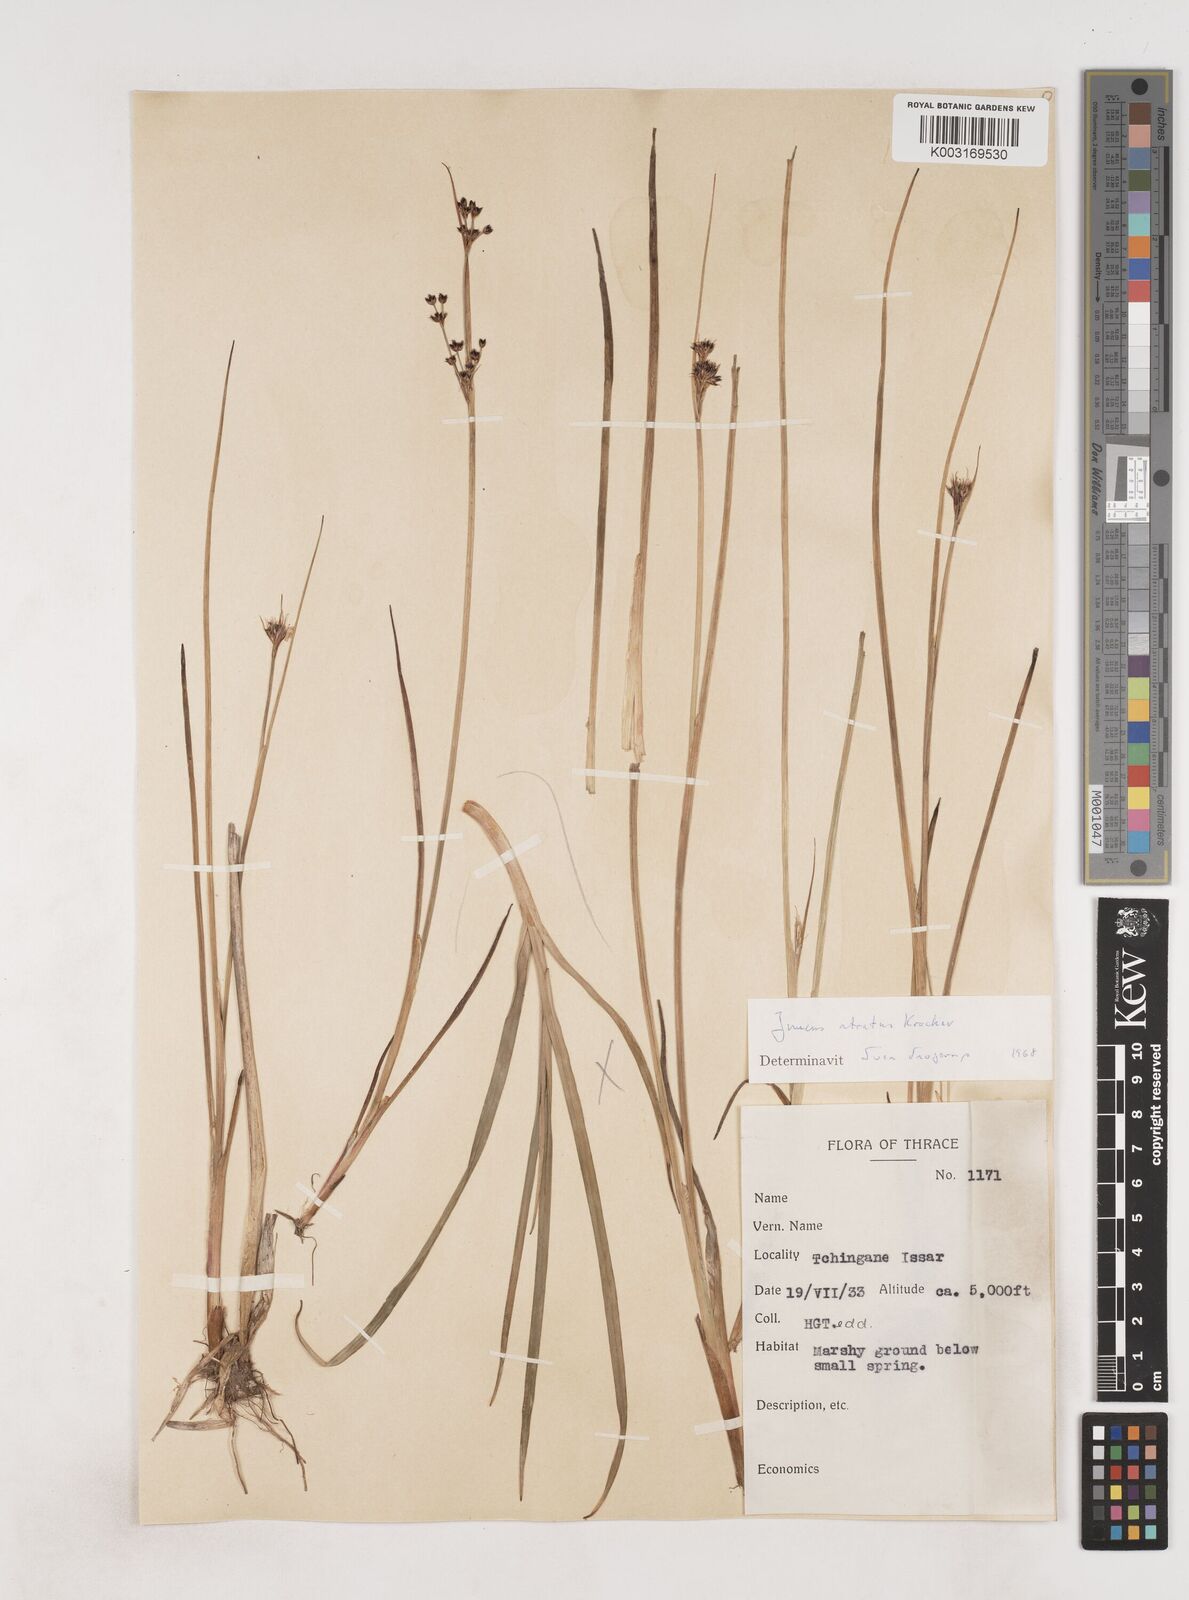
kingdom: Plantae
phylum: Tracheophyta
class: Liliopsida
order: Poales
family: Juncaceae
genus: Juncus
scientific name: Juncus atratus
